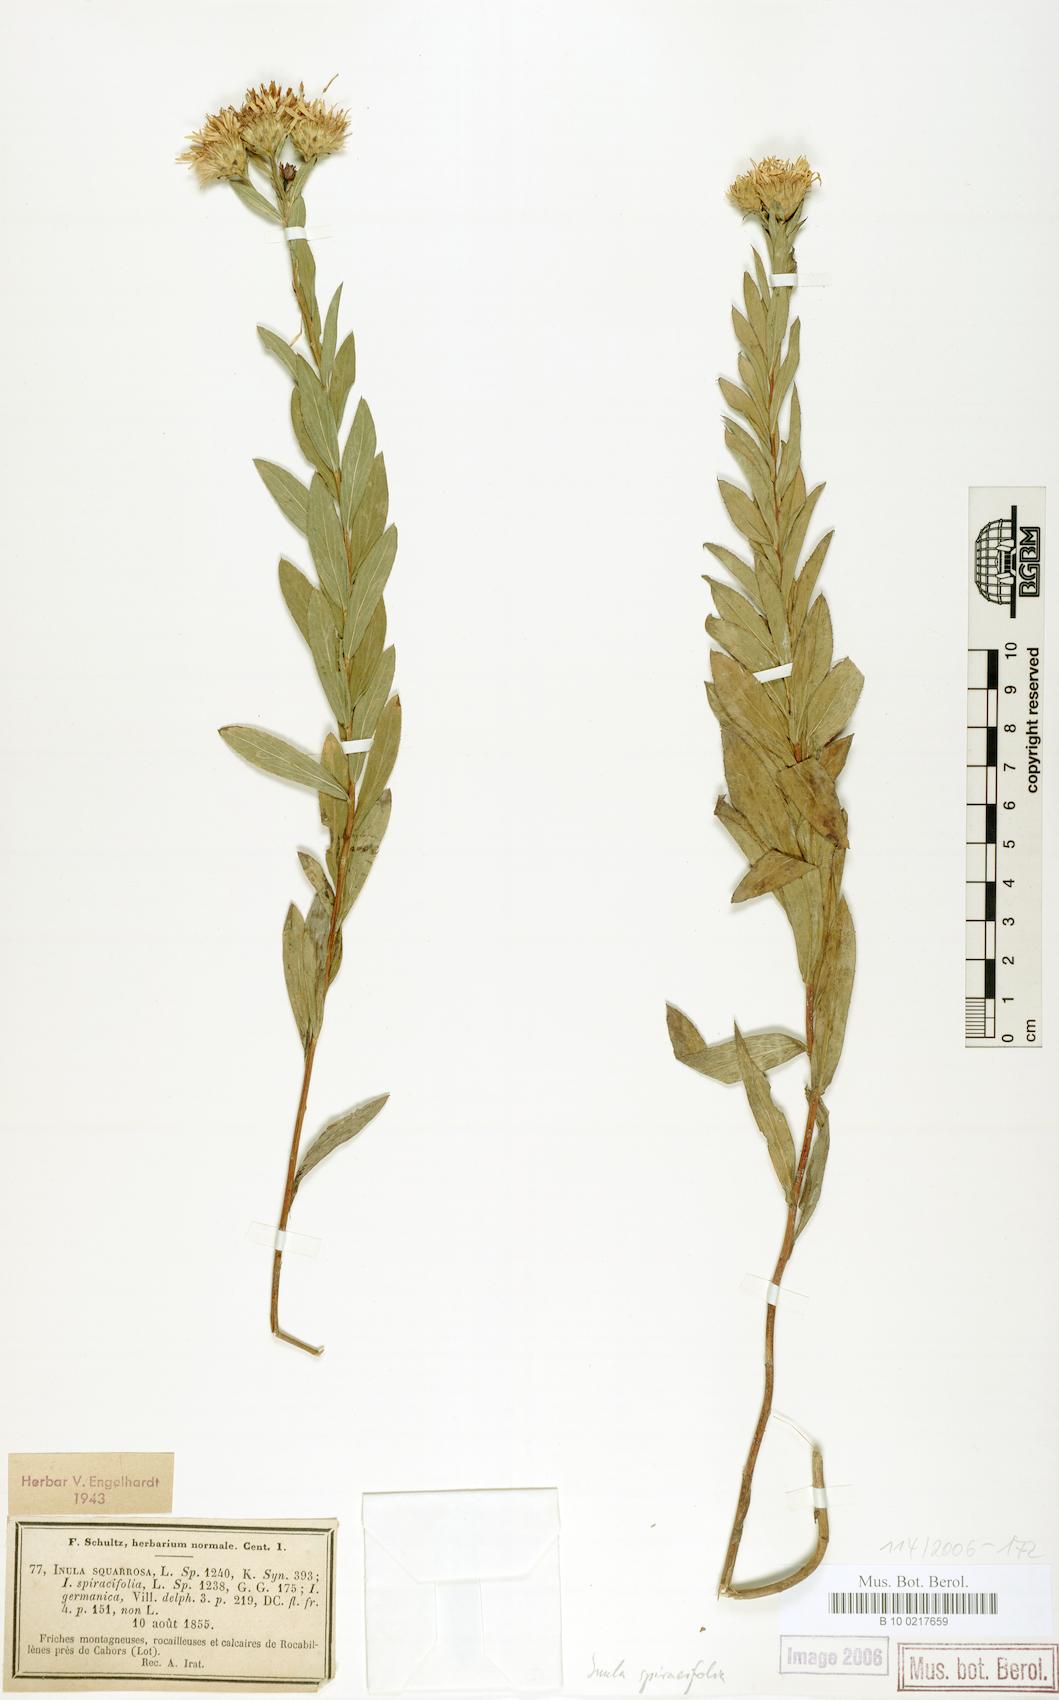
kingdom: Plantae
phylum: Tracheophyta
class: Magnoliopsida
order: Asterales
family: Asteraceae
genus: Pentanema
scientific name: Pentanema spiraeifolium
